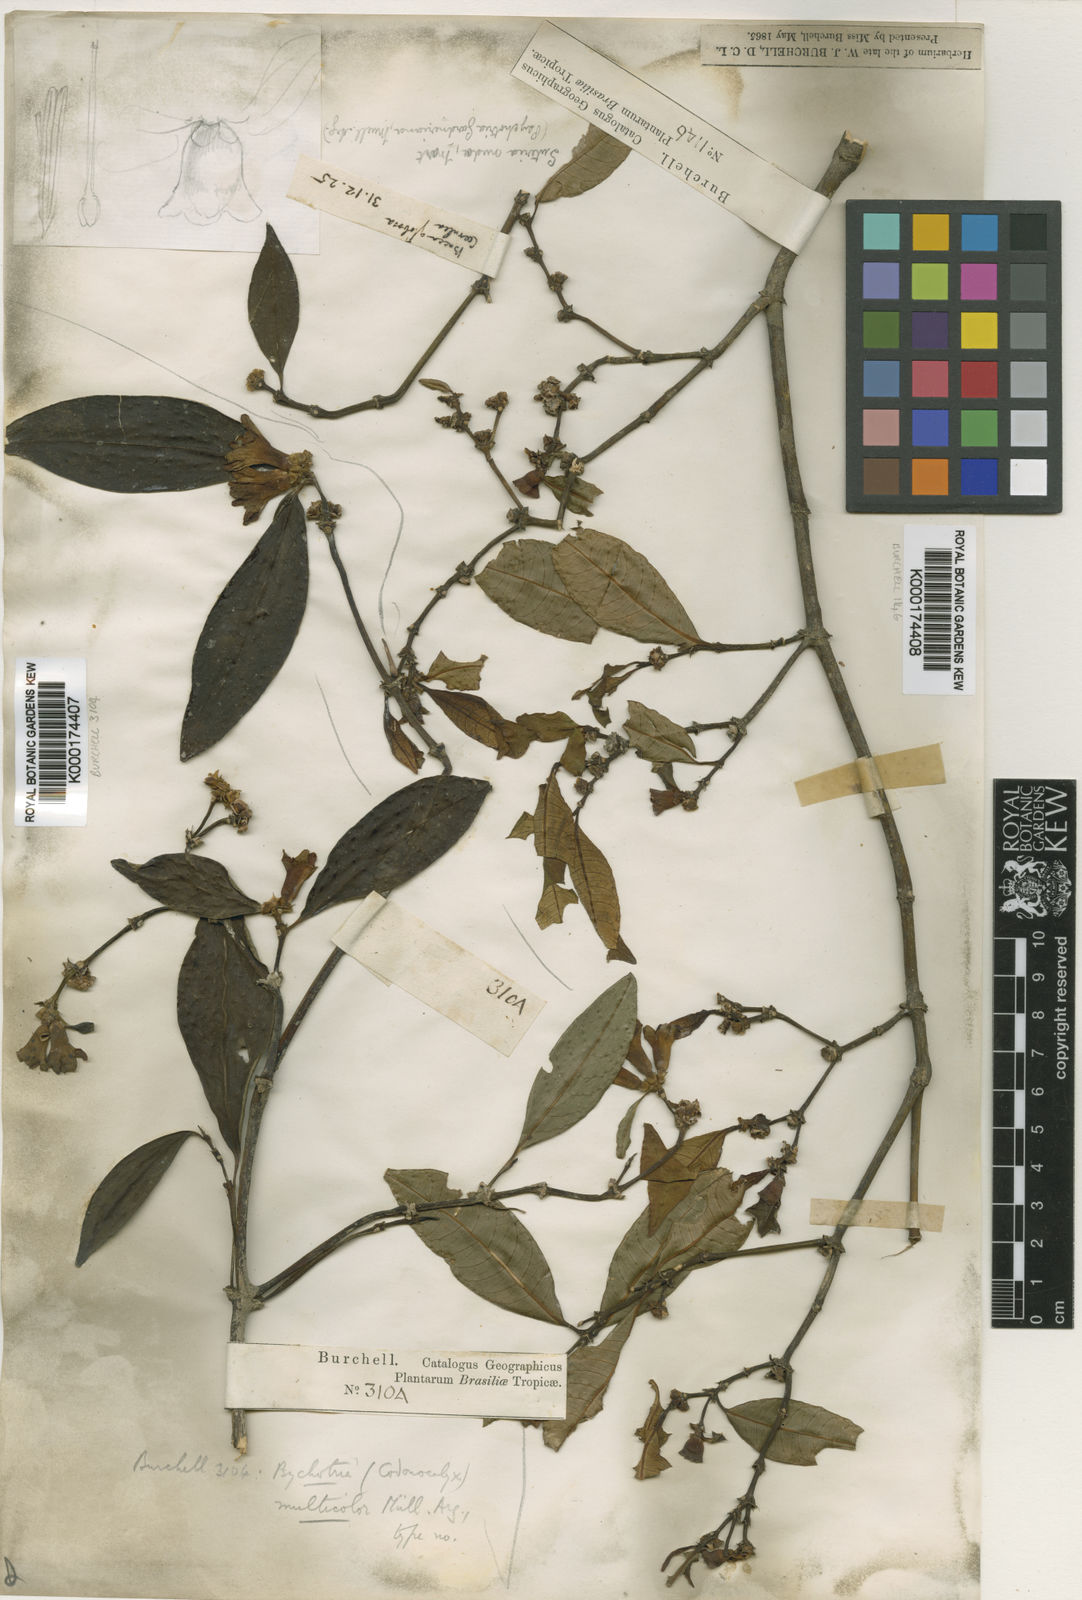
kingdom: Plantae
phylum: Tracheophyta
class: Magnoliopsida
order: Gentianales
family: Rubiaceae
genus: Psychotria
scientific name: Psychotria
